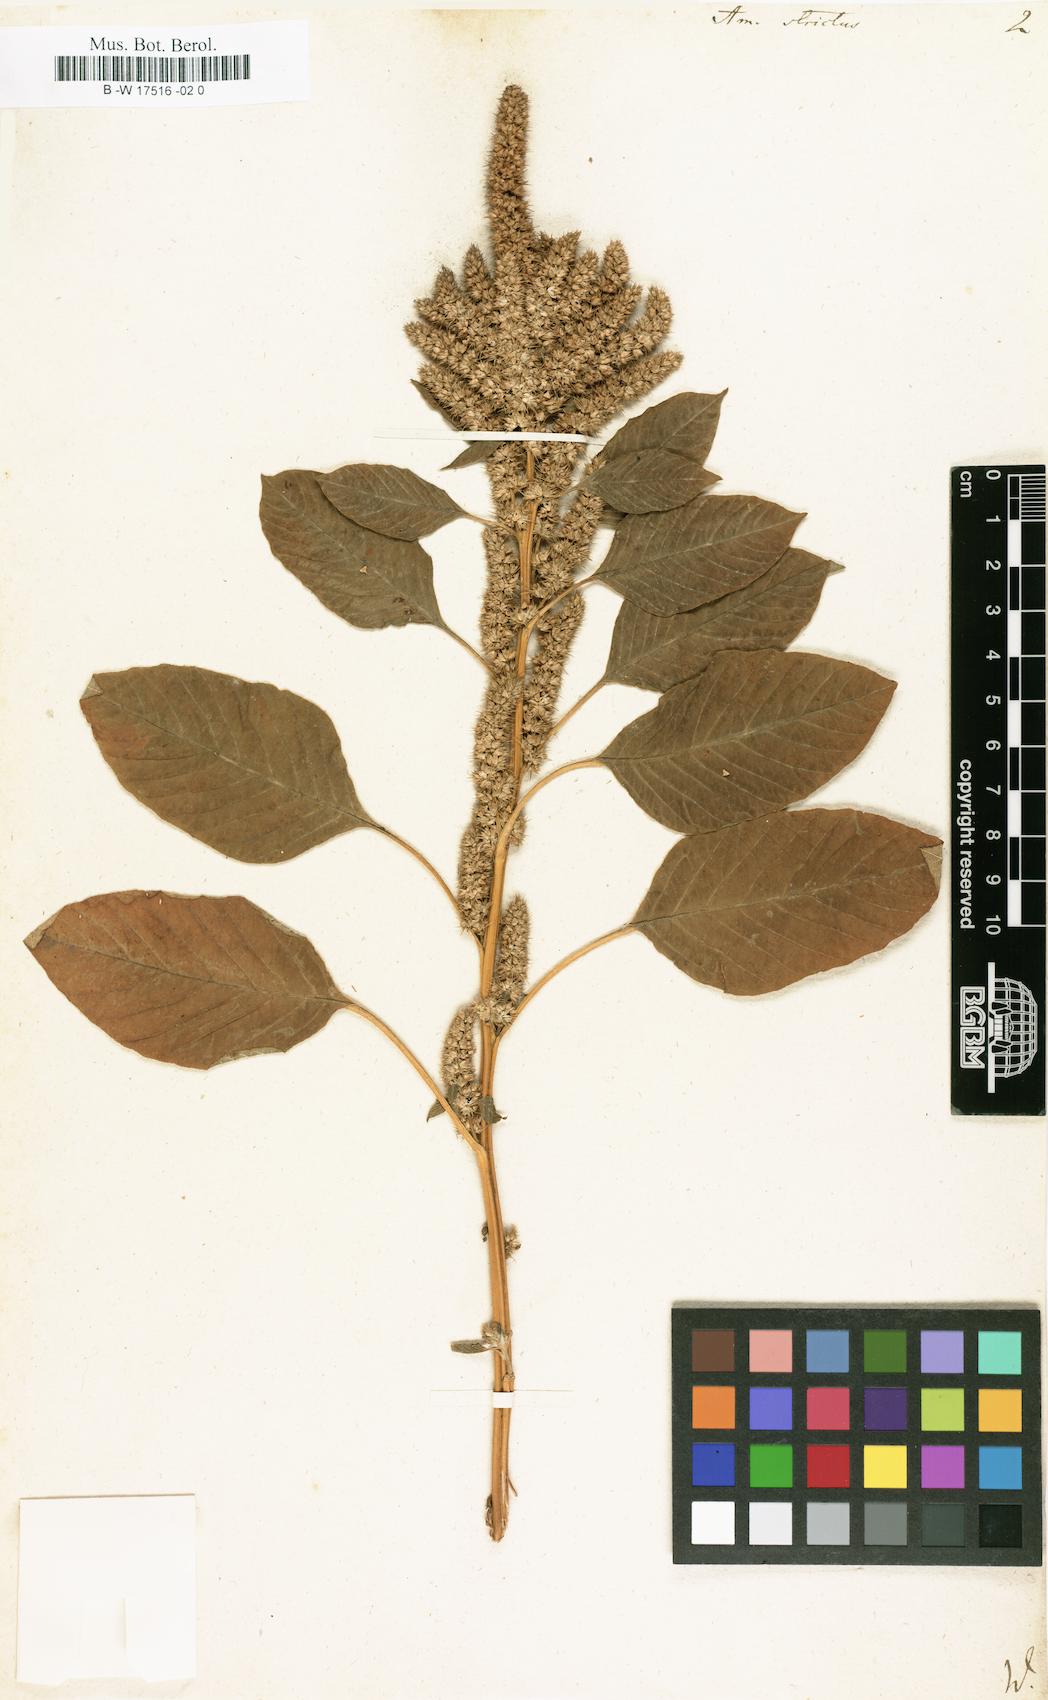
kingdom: Plantae
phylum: Tracheophyta
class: Magnoliopsida
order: Caryophyllales
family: Amaranthaceae
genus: Amaranthus
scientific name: Amaranthus cruentus
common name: Purple amaranth
